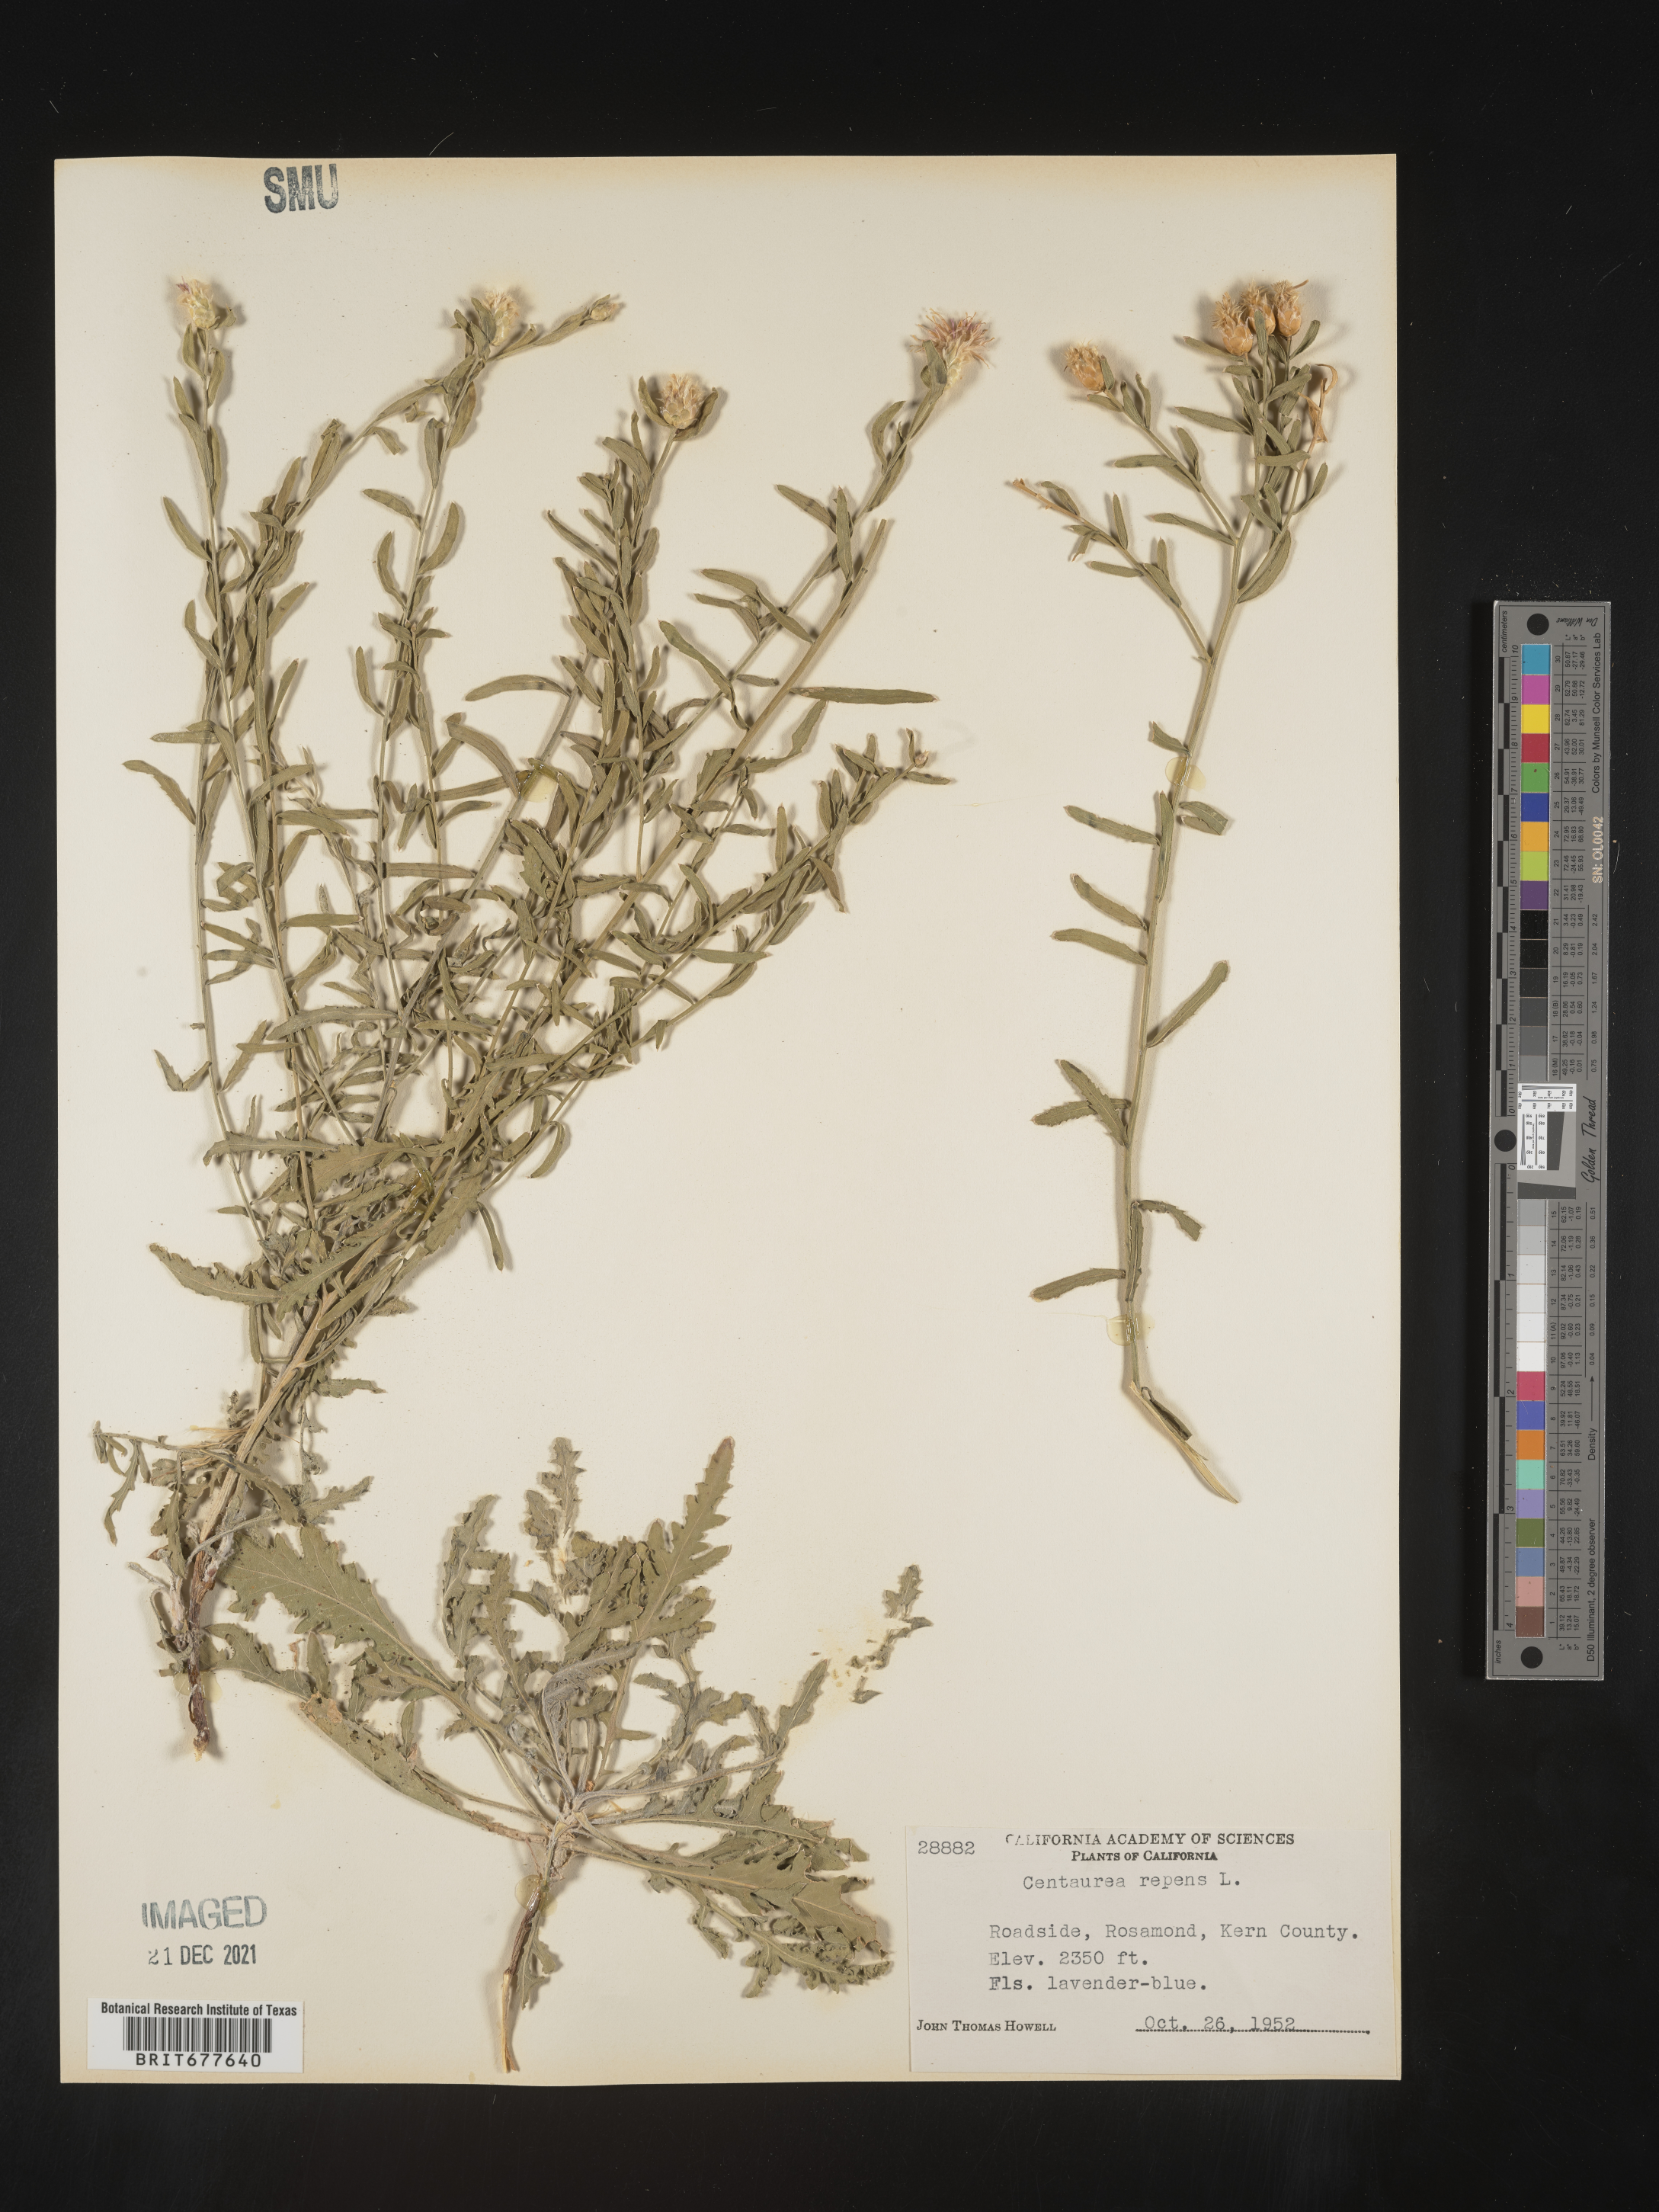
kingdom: Plantae
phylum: Tracheophyta
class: Magnoliopsida
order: Asterales
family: Asteraceae
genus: Leuzea
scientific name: Leuzea repens
